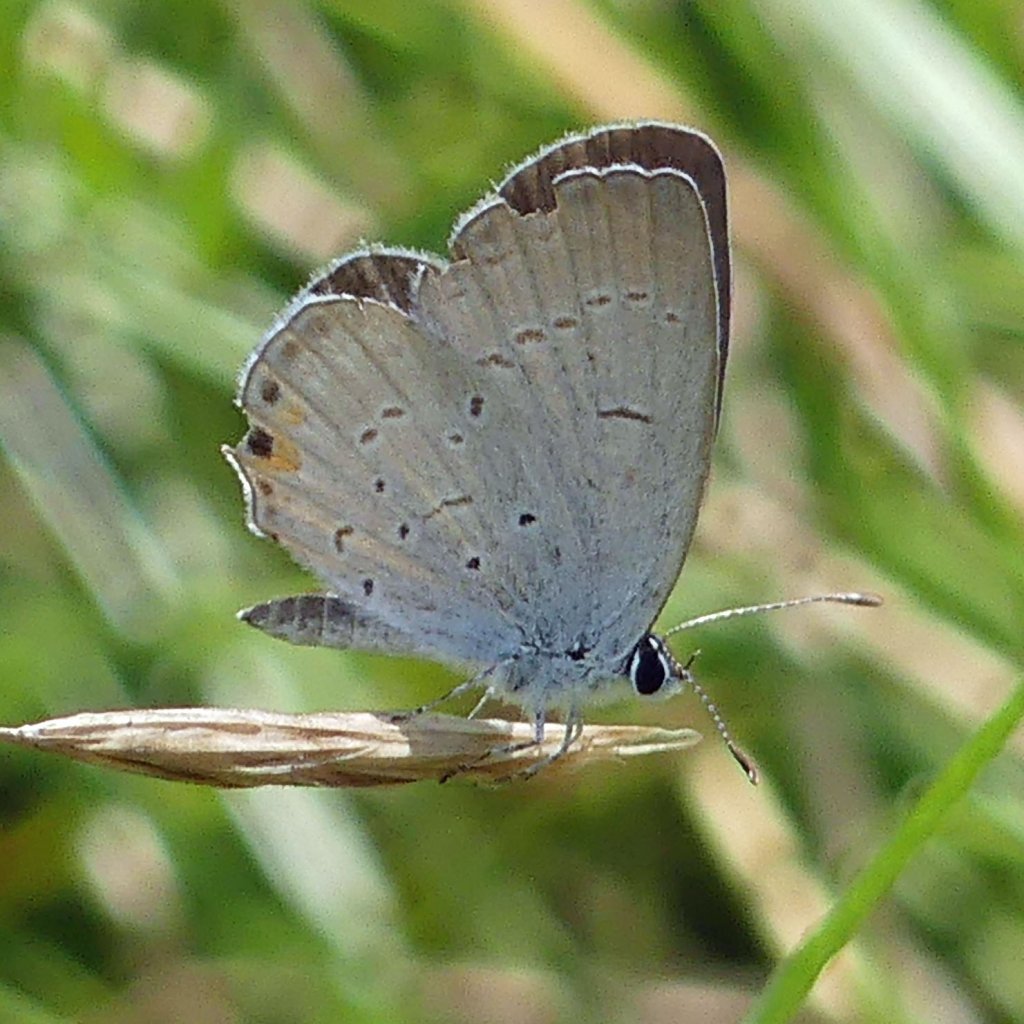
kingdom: Animalia
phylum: Arthropoda
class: Insecta
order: Lepidoptera
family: Lycaenidae
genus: Elkalyce
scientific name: Elkalyce comyntas
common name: Eastern Tailed-Blue
